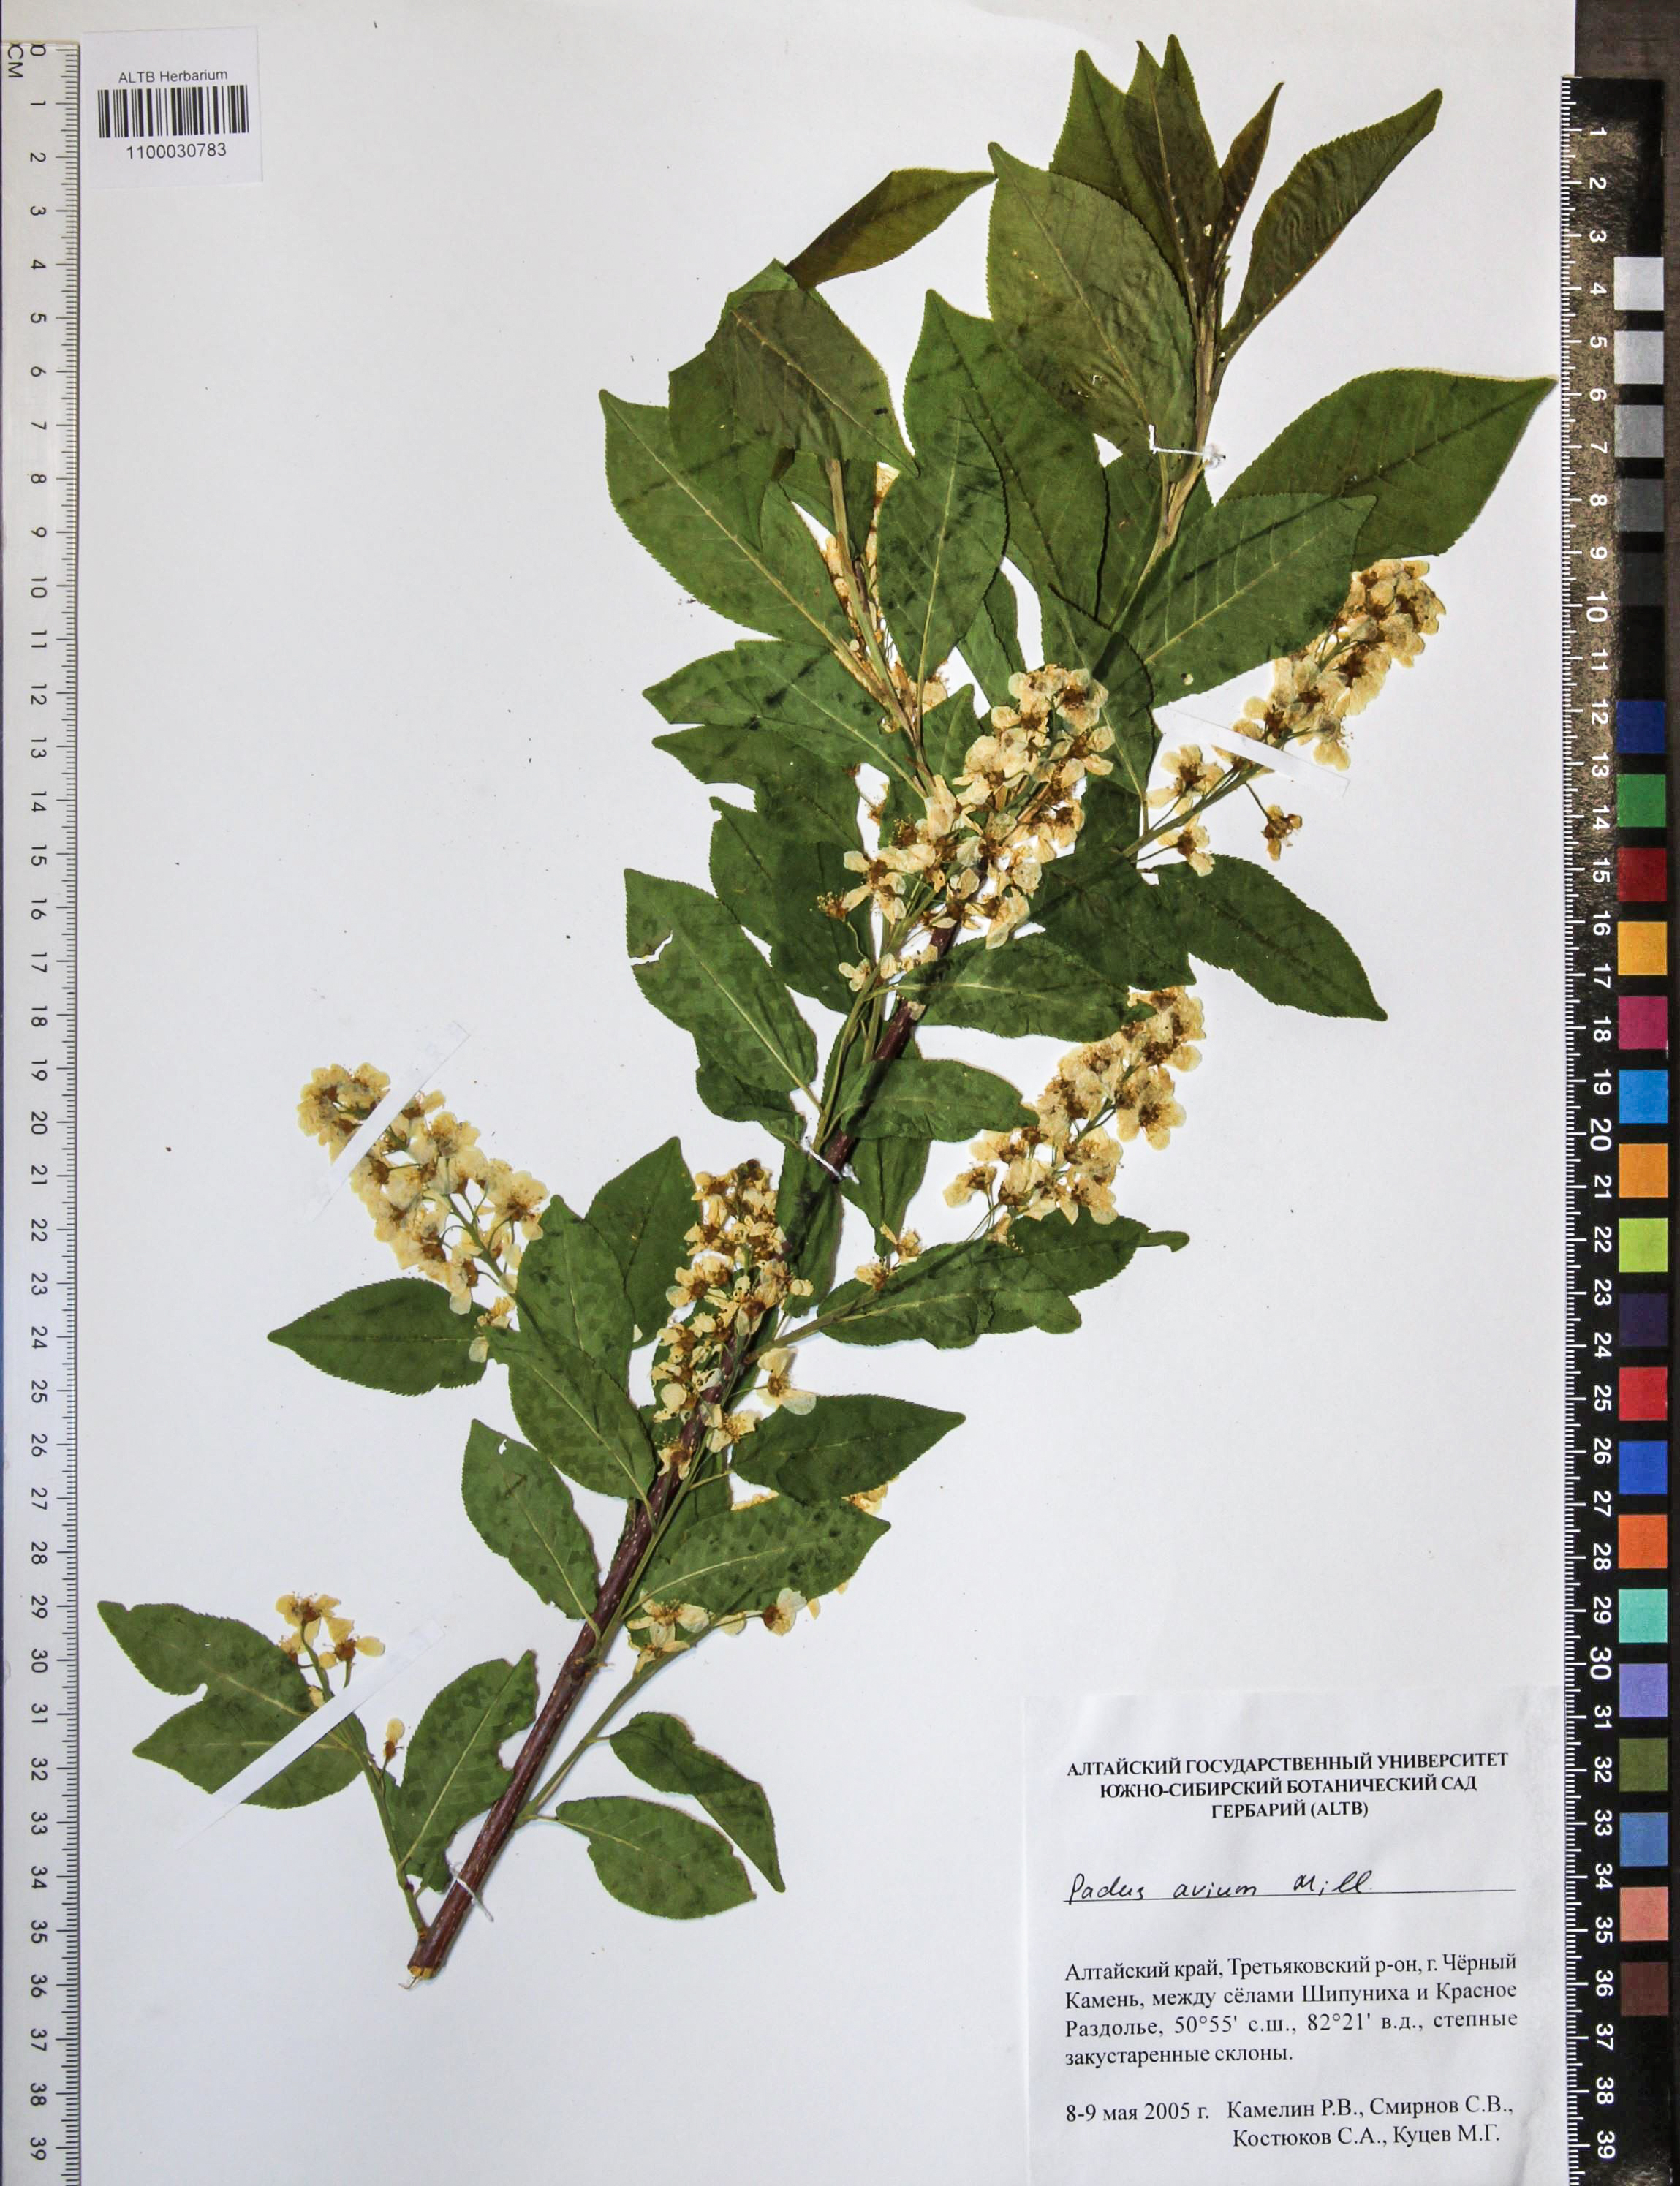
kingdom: Plantae
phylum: Tracheophyta
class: Magnoliopsida
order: Rosales
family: Rosaceae
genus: Prunus
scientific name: Prunus padus
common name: Bird cherry
